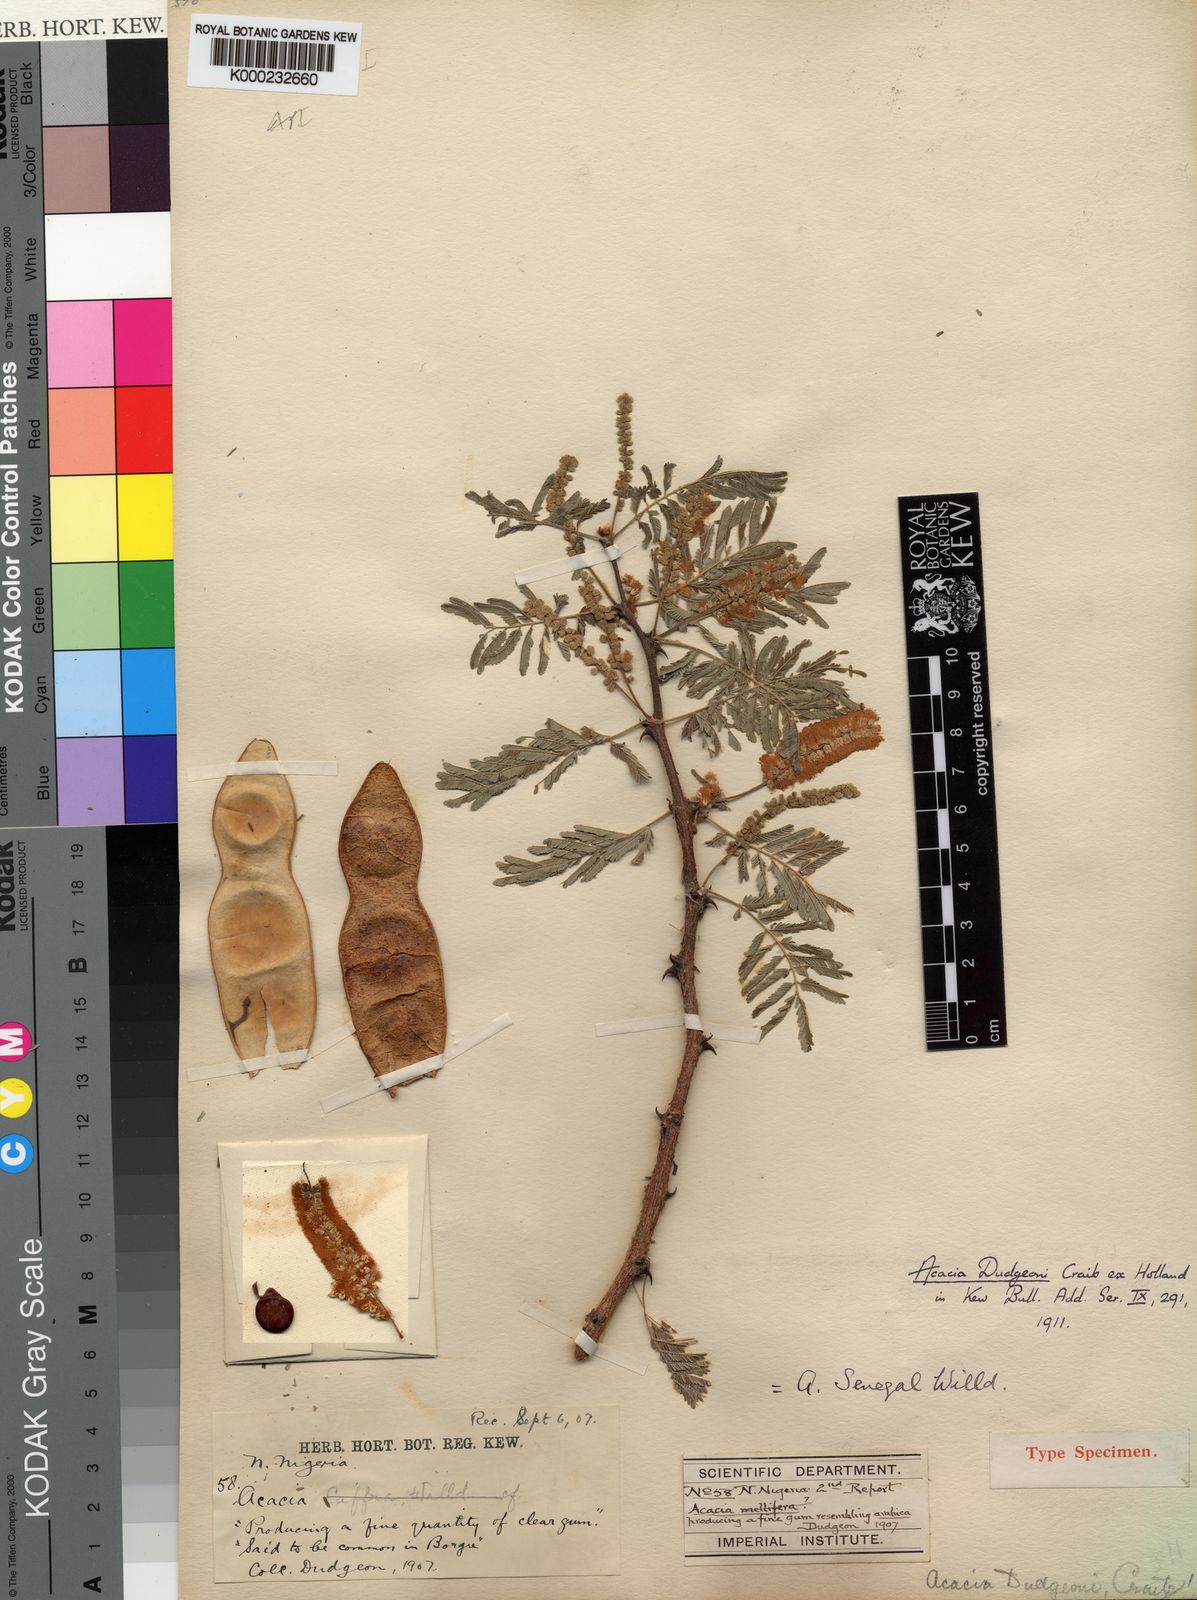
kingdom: Plantae
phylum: Tracheophyta
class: Magnoliopsida
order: Fabales
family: Fabaceae
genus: Acacia
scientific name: Acacia
